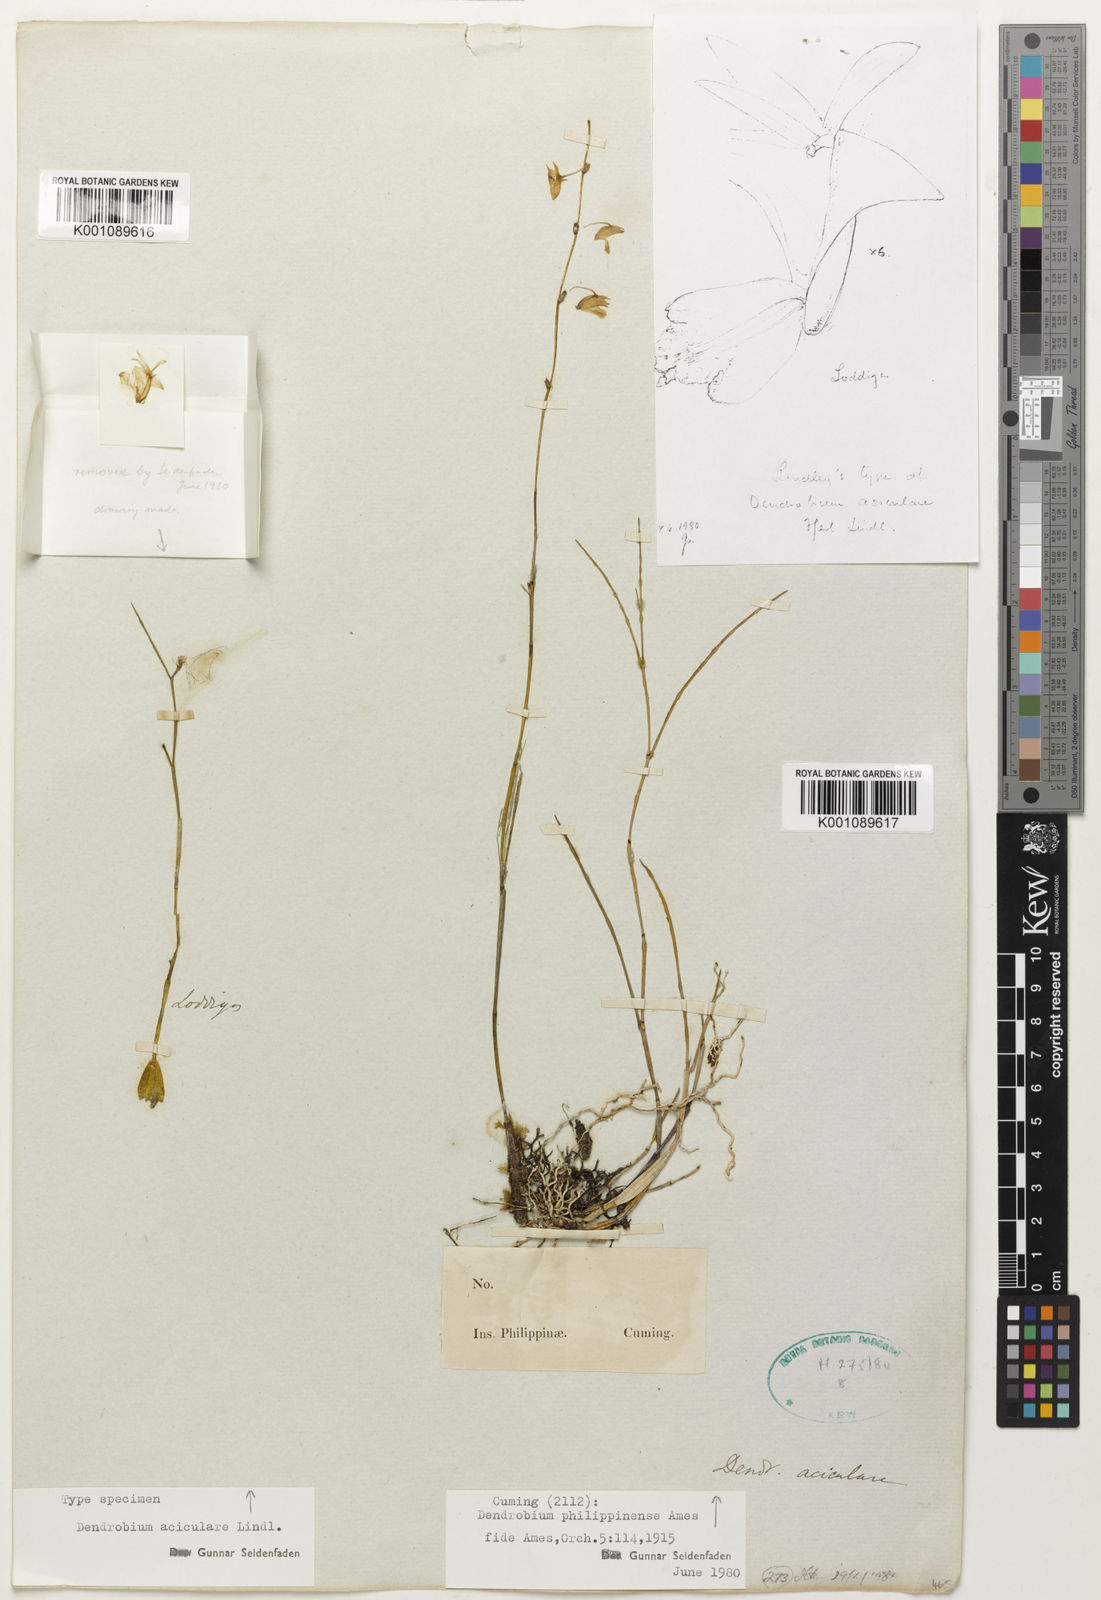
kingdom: Plantae
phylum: Tracheophyta
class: Liliopsida
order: Asparagales
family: Orchidaceae
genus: Dendrobium
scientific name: Dendrobium aciculare
